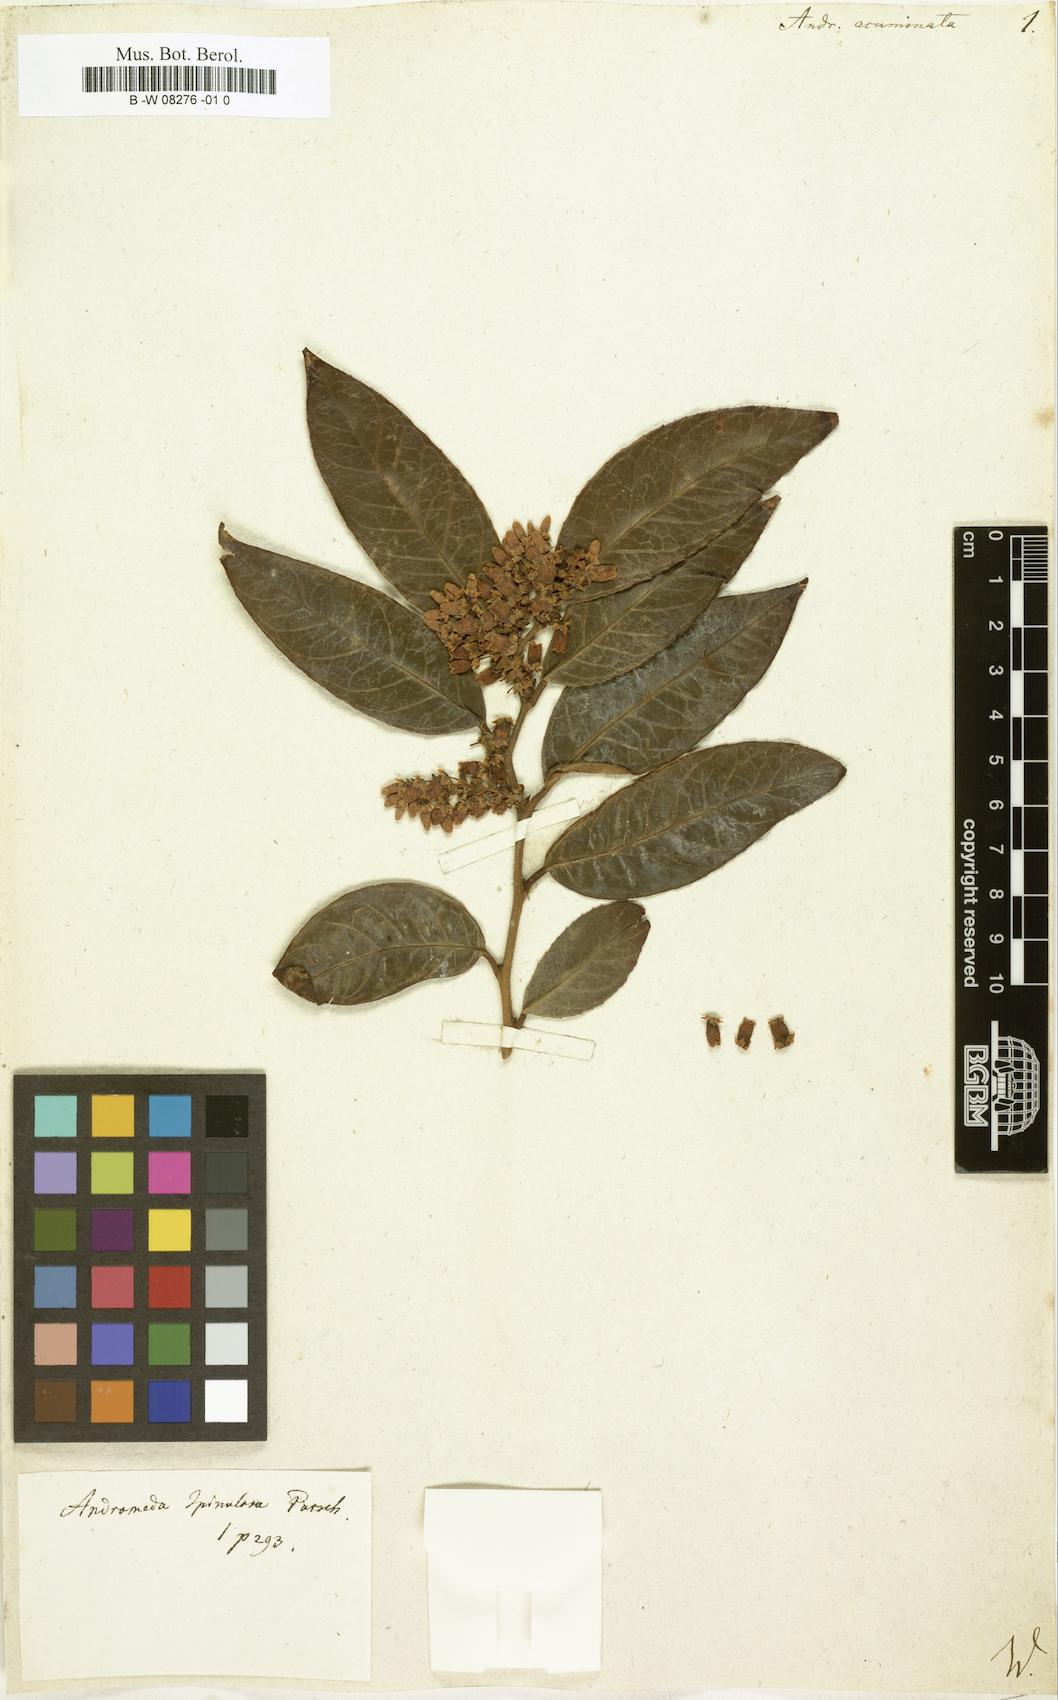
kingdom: Plantae
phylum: Tracheophyta
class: Magnoliopsida
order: Ericales
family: Ericaceae
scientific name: Ericaceae
